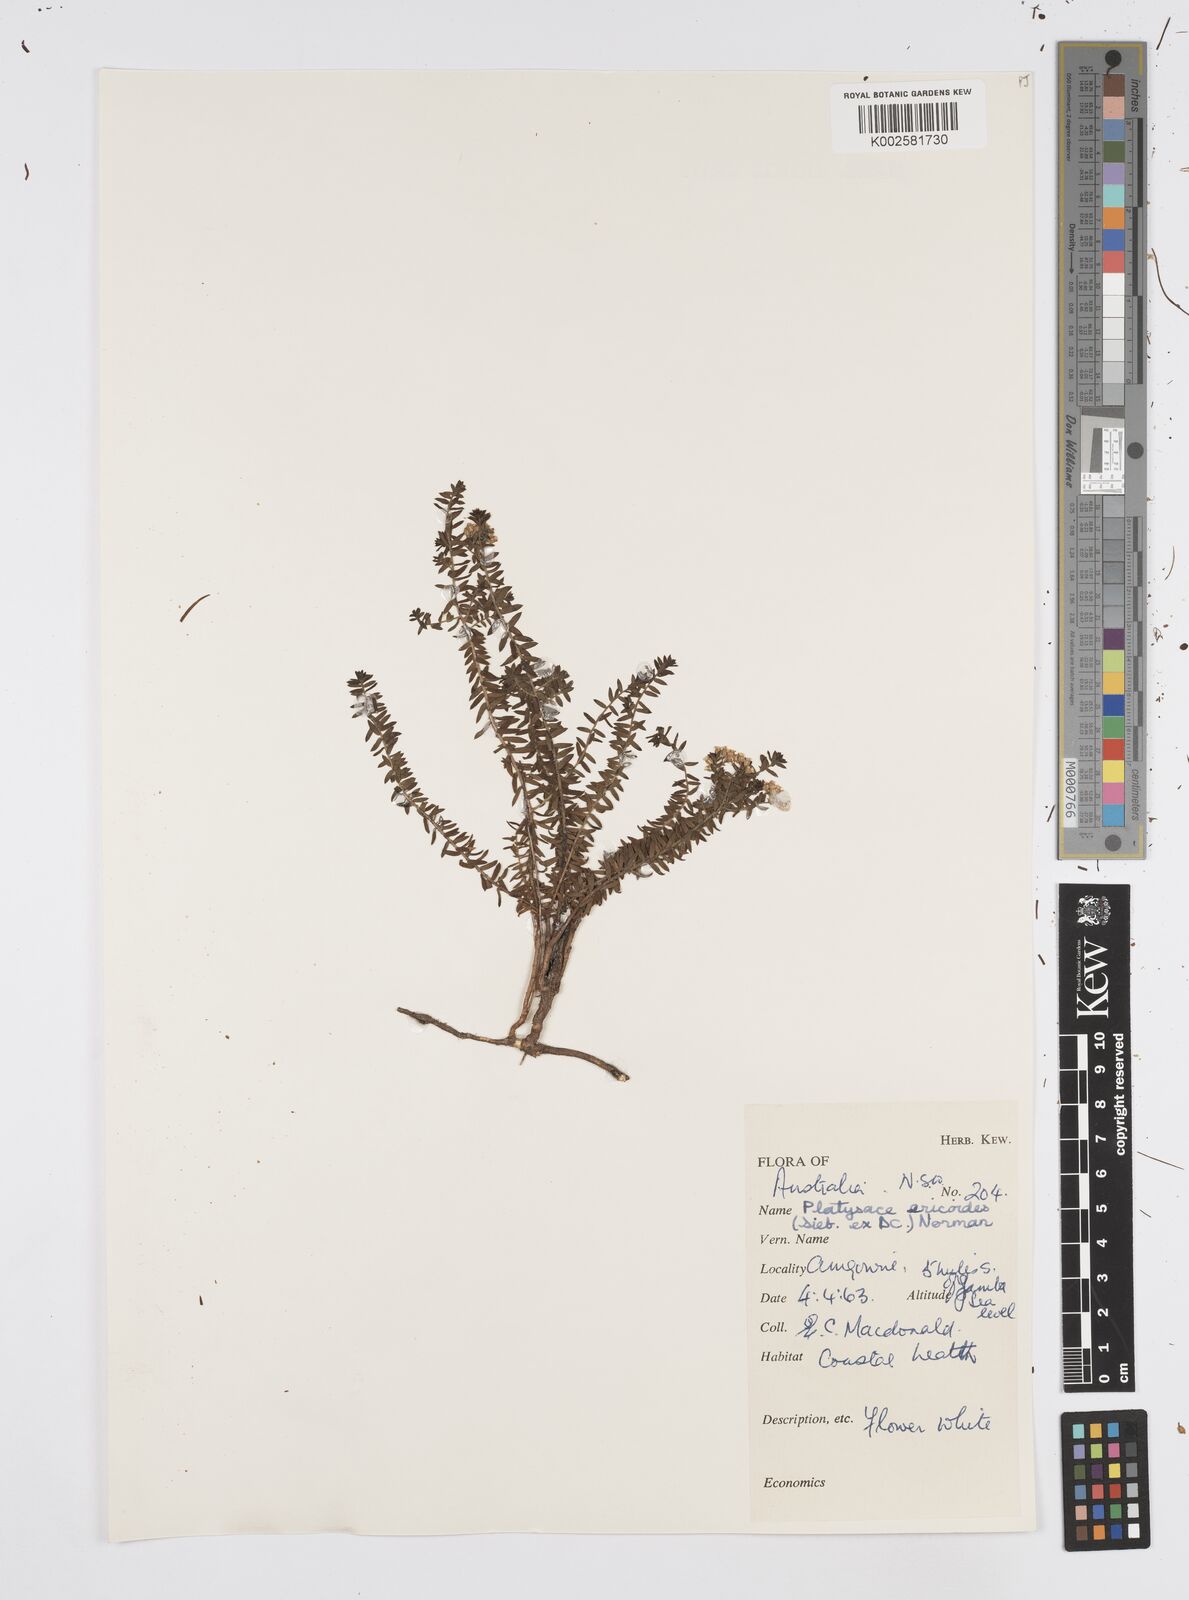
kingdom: Plantae
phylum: Tracheophyta
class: Magnoliopsida
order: Apiales
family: Apiaceae
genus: Platysace
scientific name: Platysace ericoides
